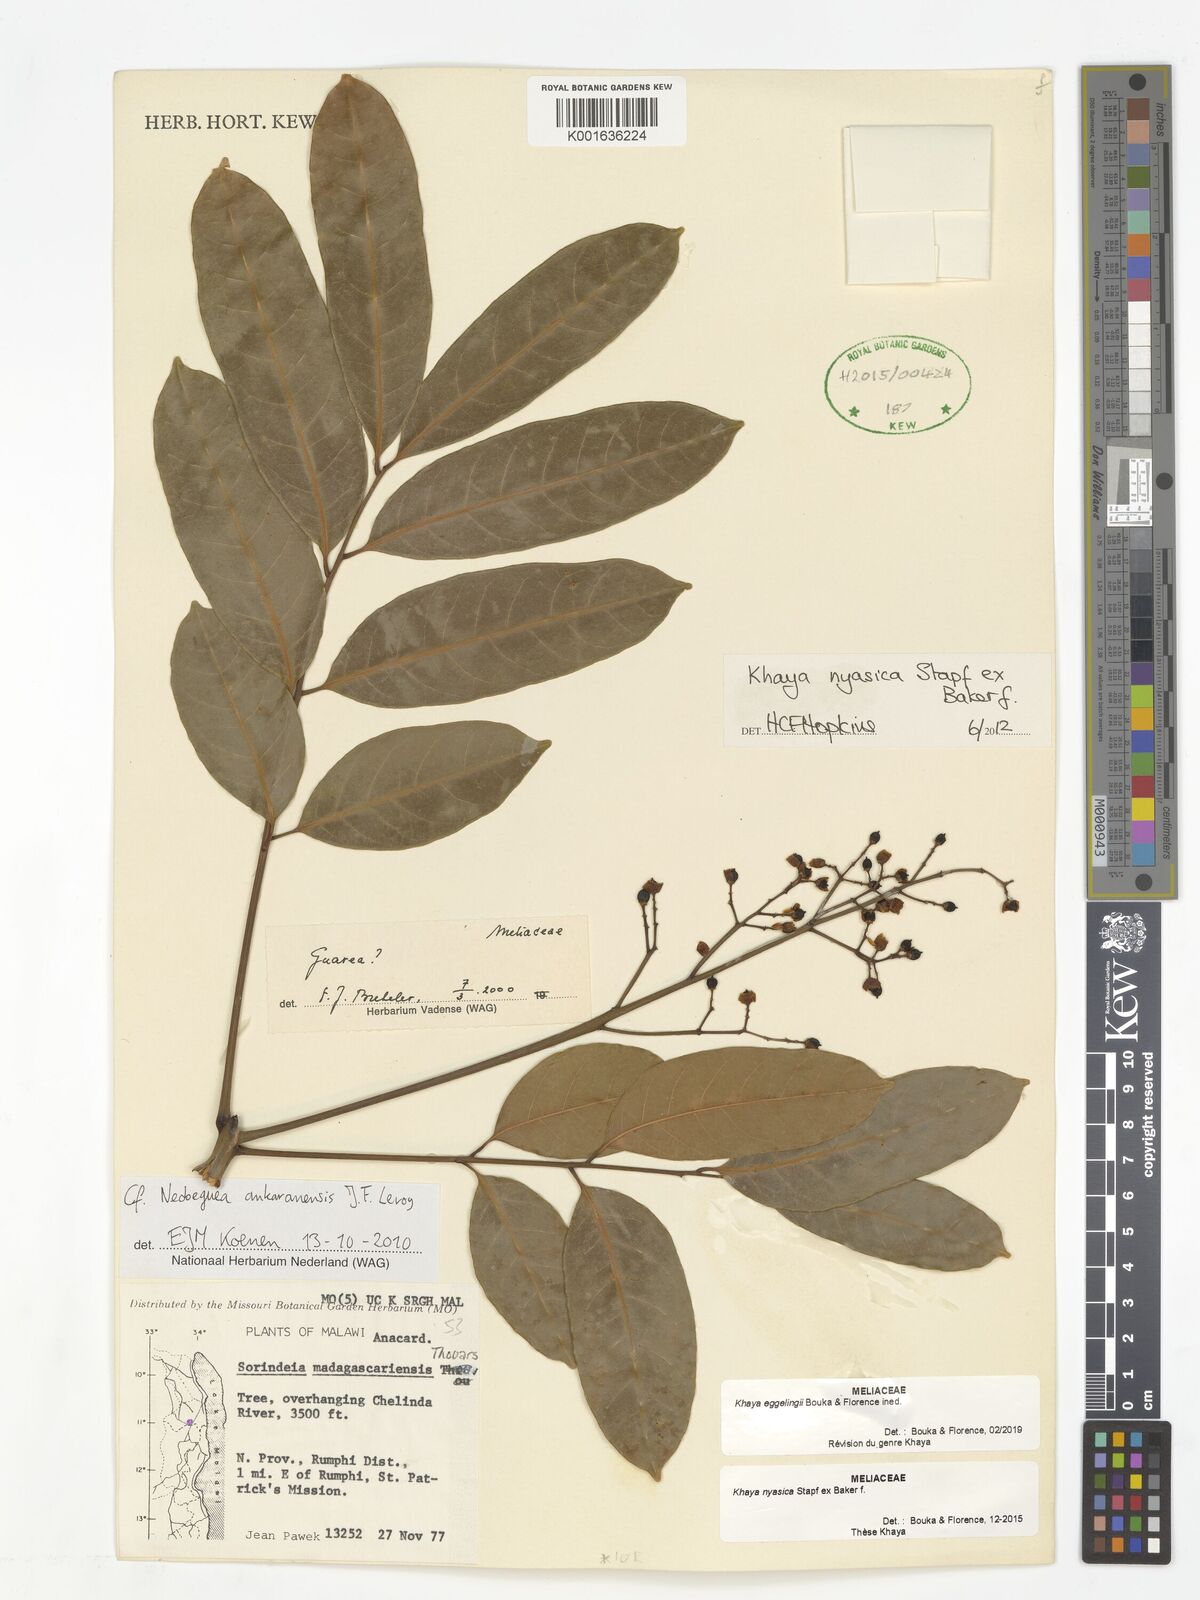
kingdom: Plantae
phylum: Tracheophyta
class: Magnoliopsida
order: Sapindales
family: Meliaceae
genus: Khaya
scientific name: Khaya
